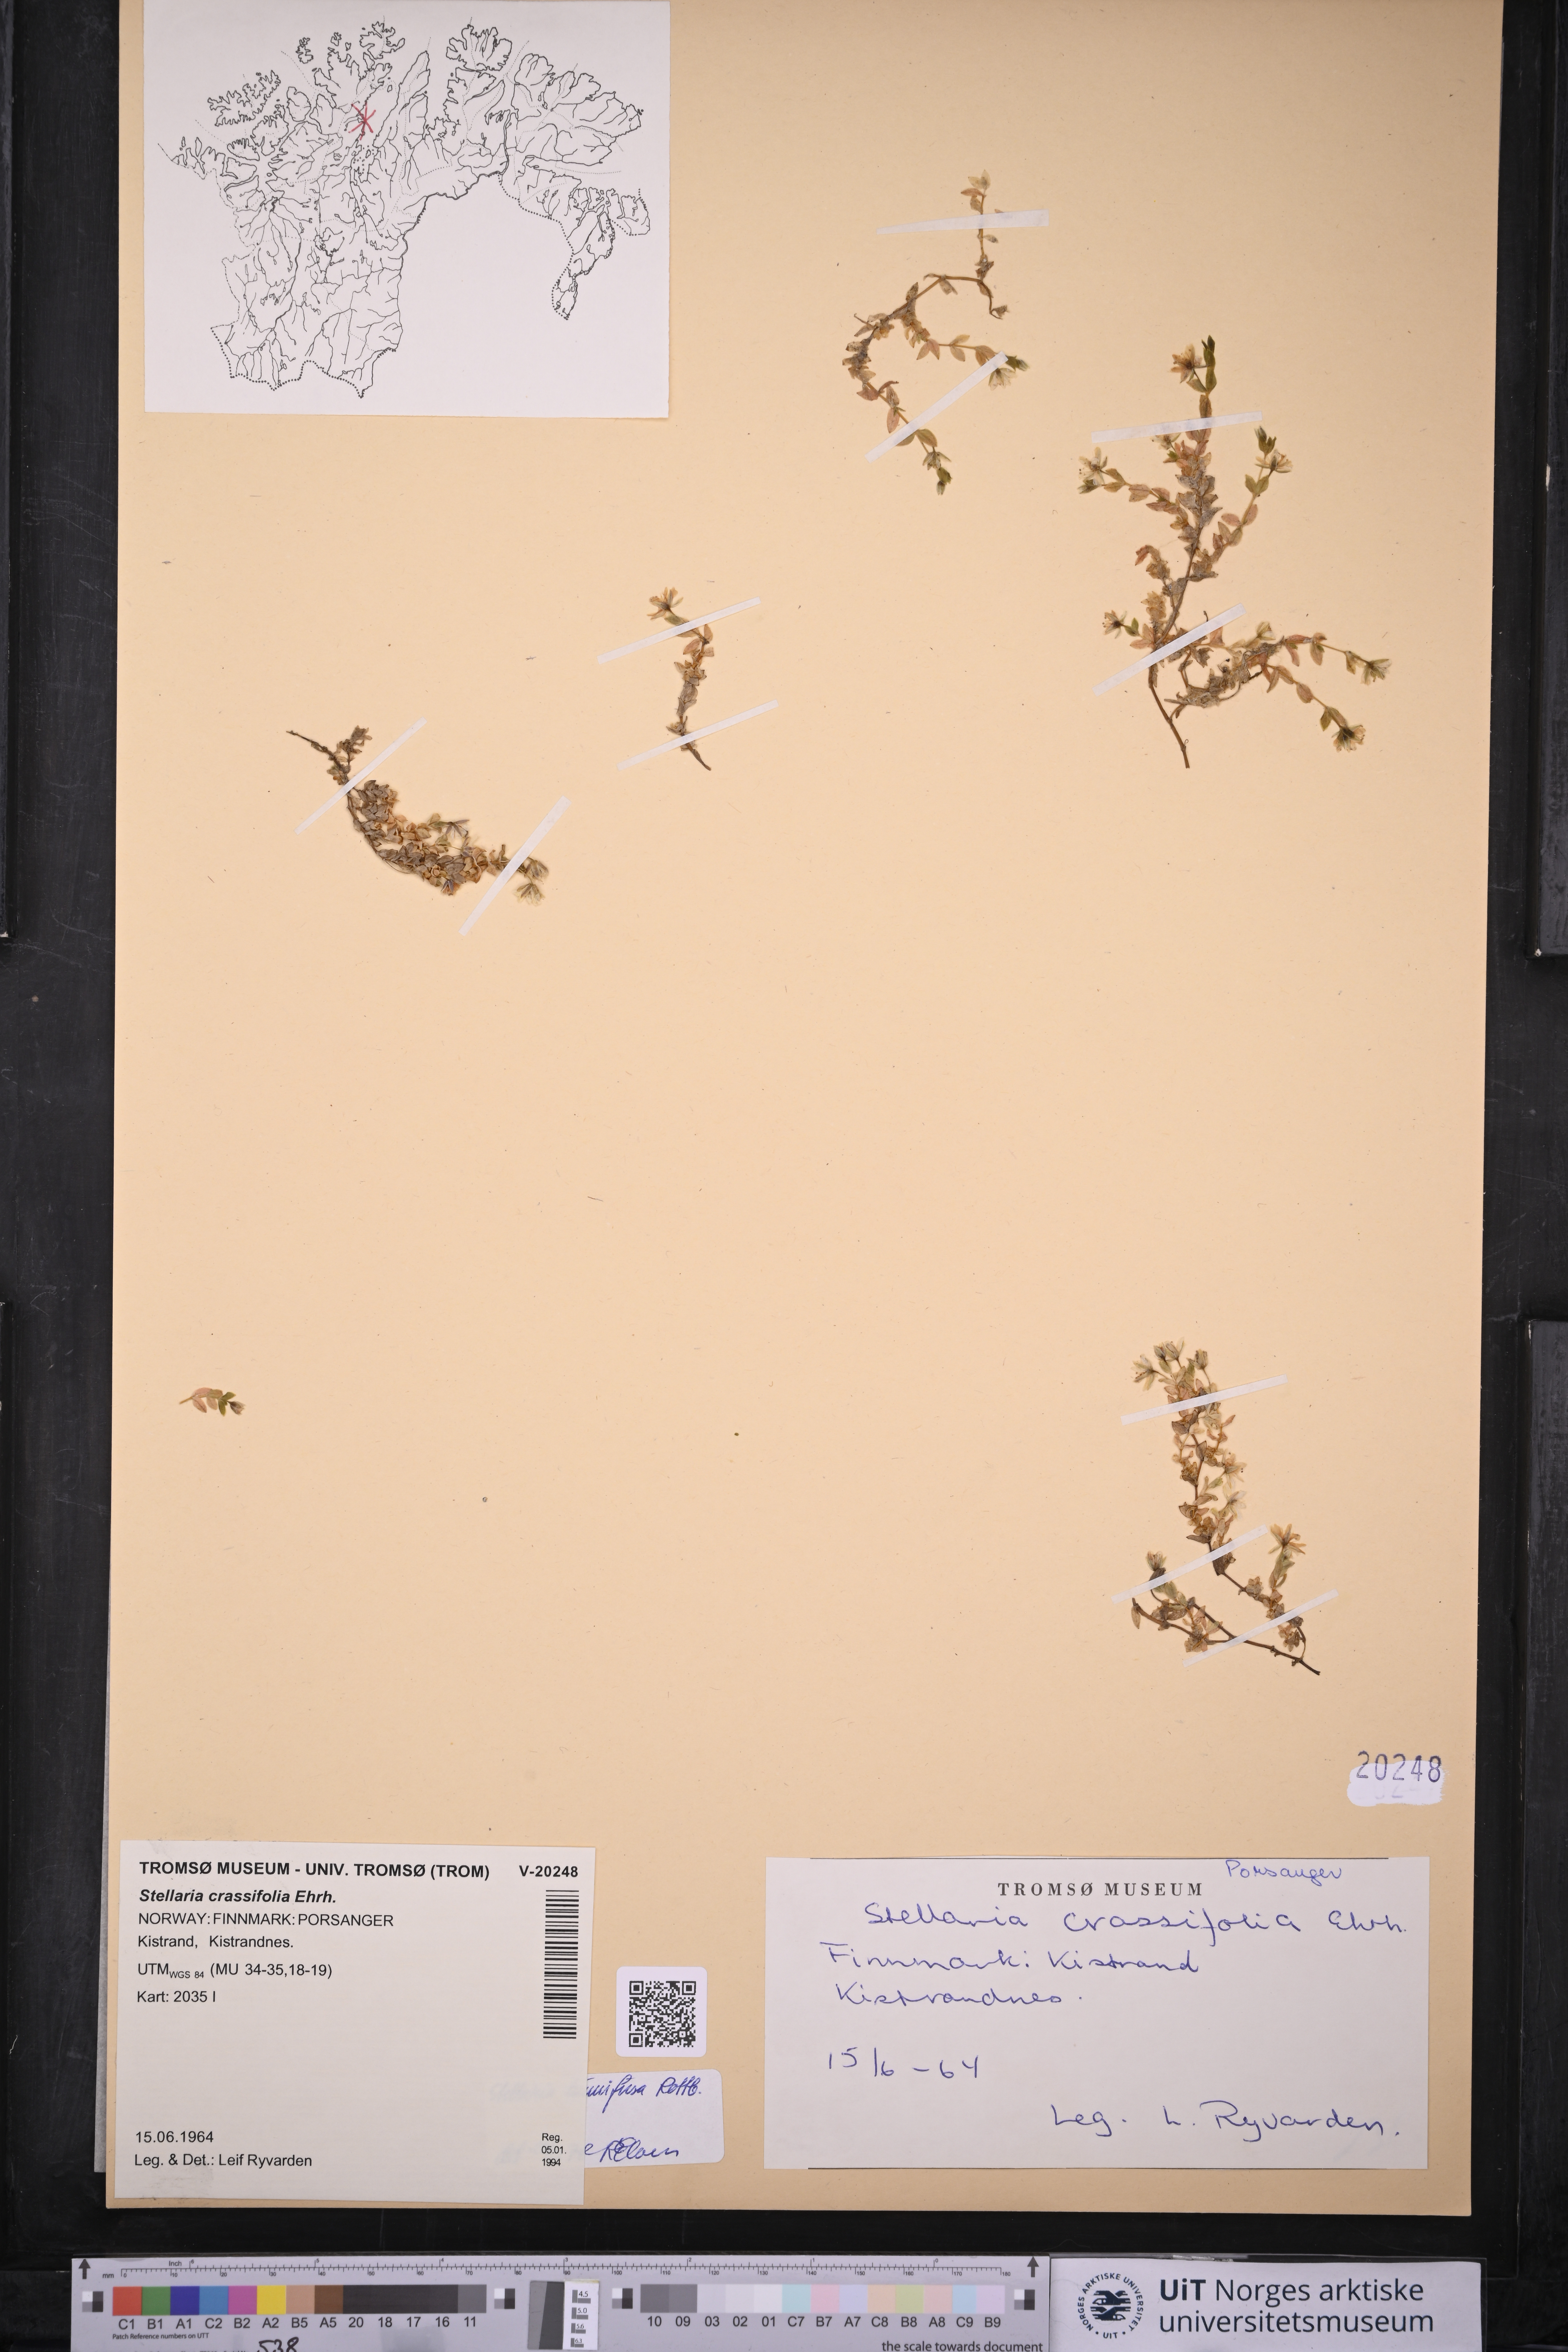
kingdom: Plantae
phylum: Tracheophyta
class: Magnoliopsida
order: Caryophyllales
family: Caryophyllaceae
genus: Stellaria
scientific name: Stellaria humifusa
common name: Creeping starwort
